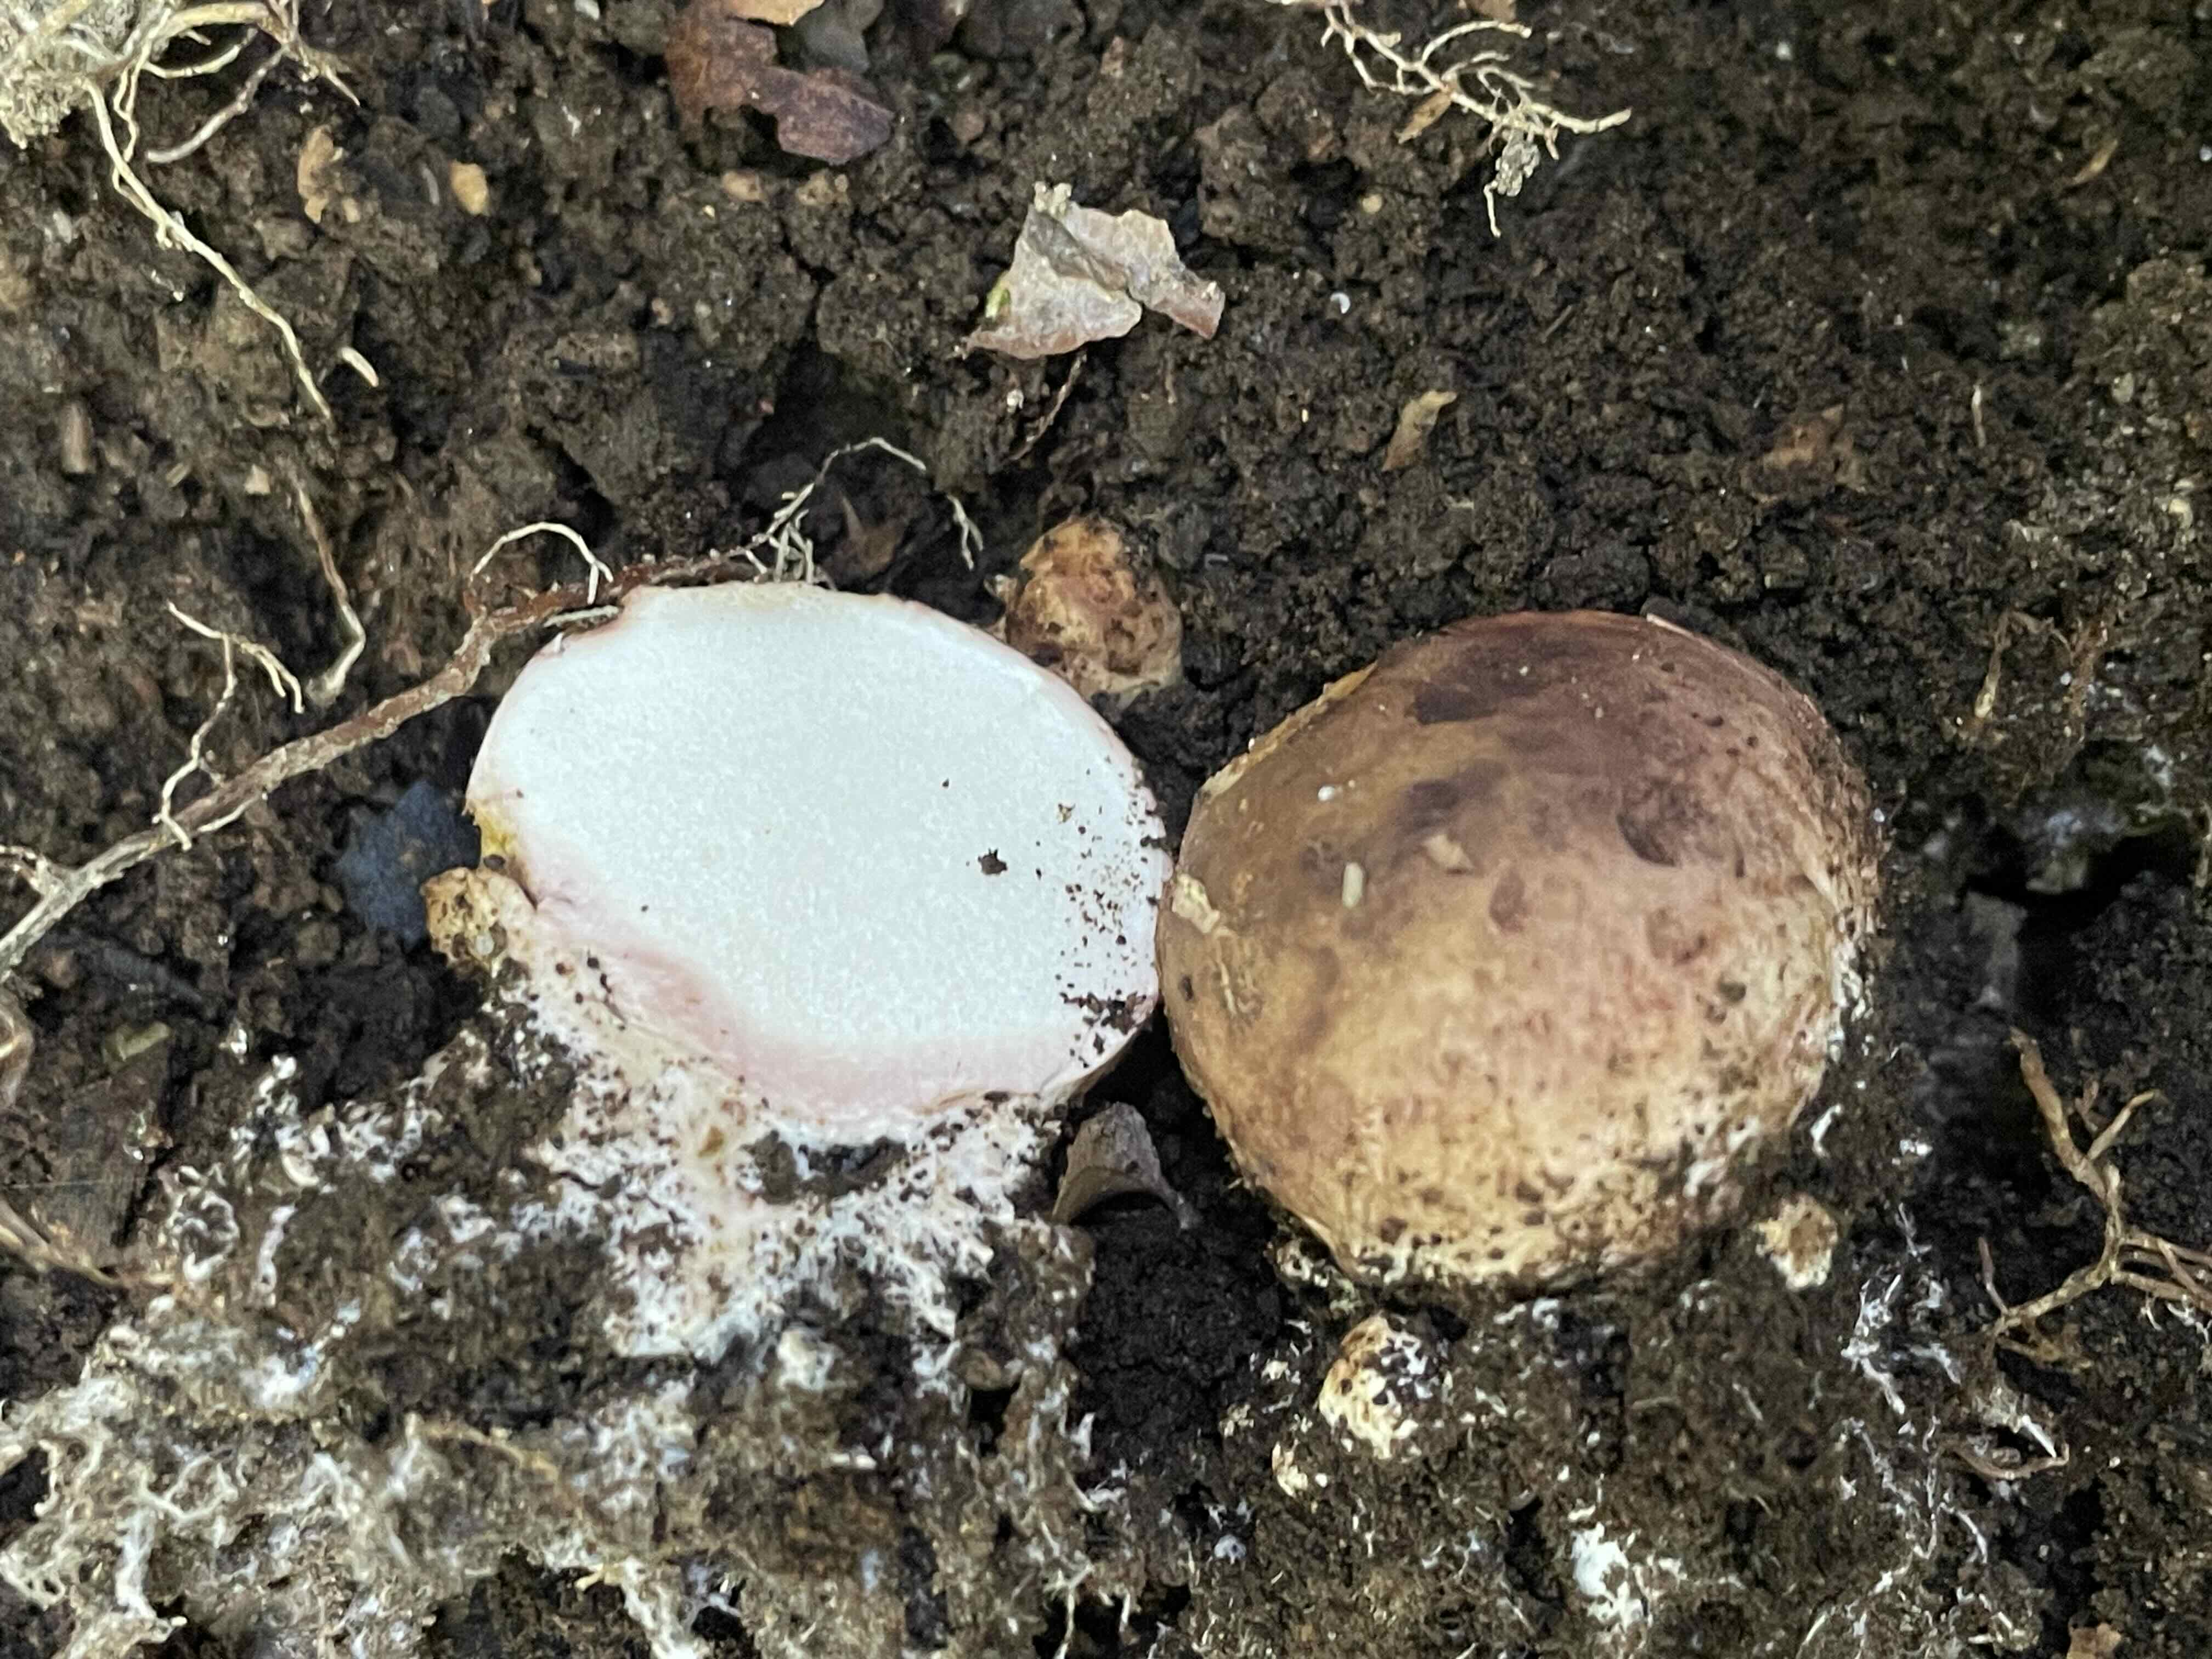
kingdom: Fungi
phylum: Basidiomycota
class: Agaricomycetes
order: Boletales
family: Sclerodermataceae
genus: Scleroderma
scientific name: Scleroderma
